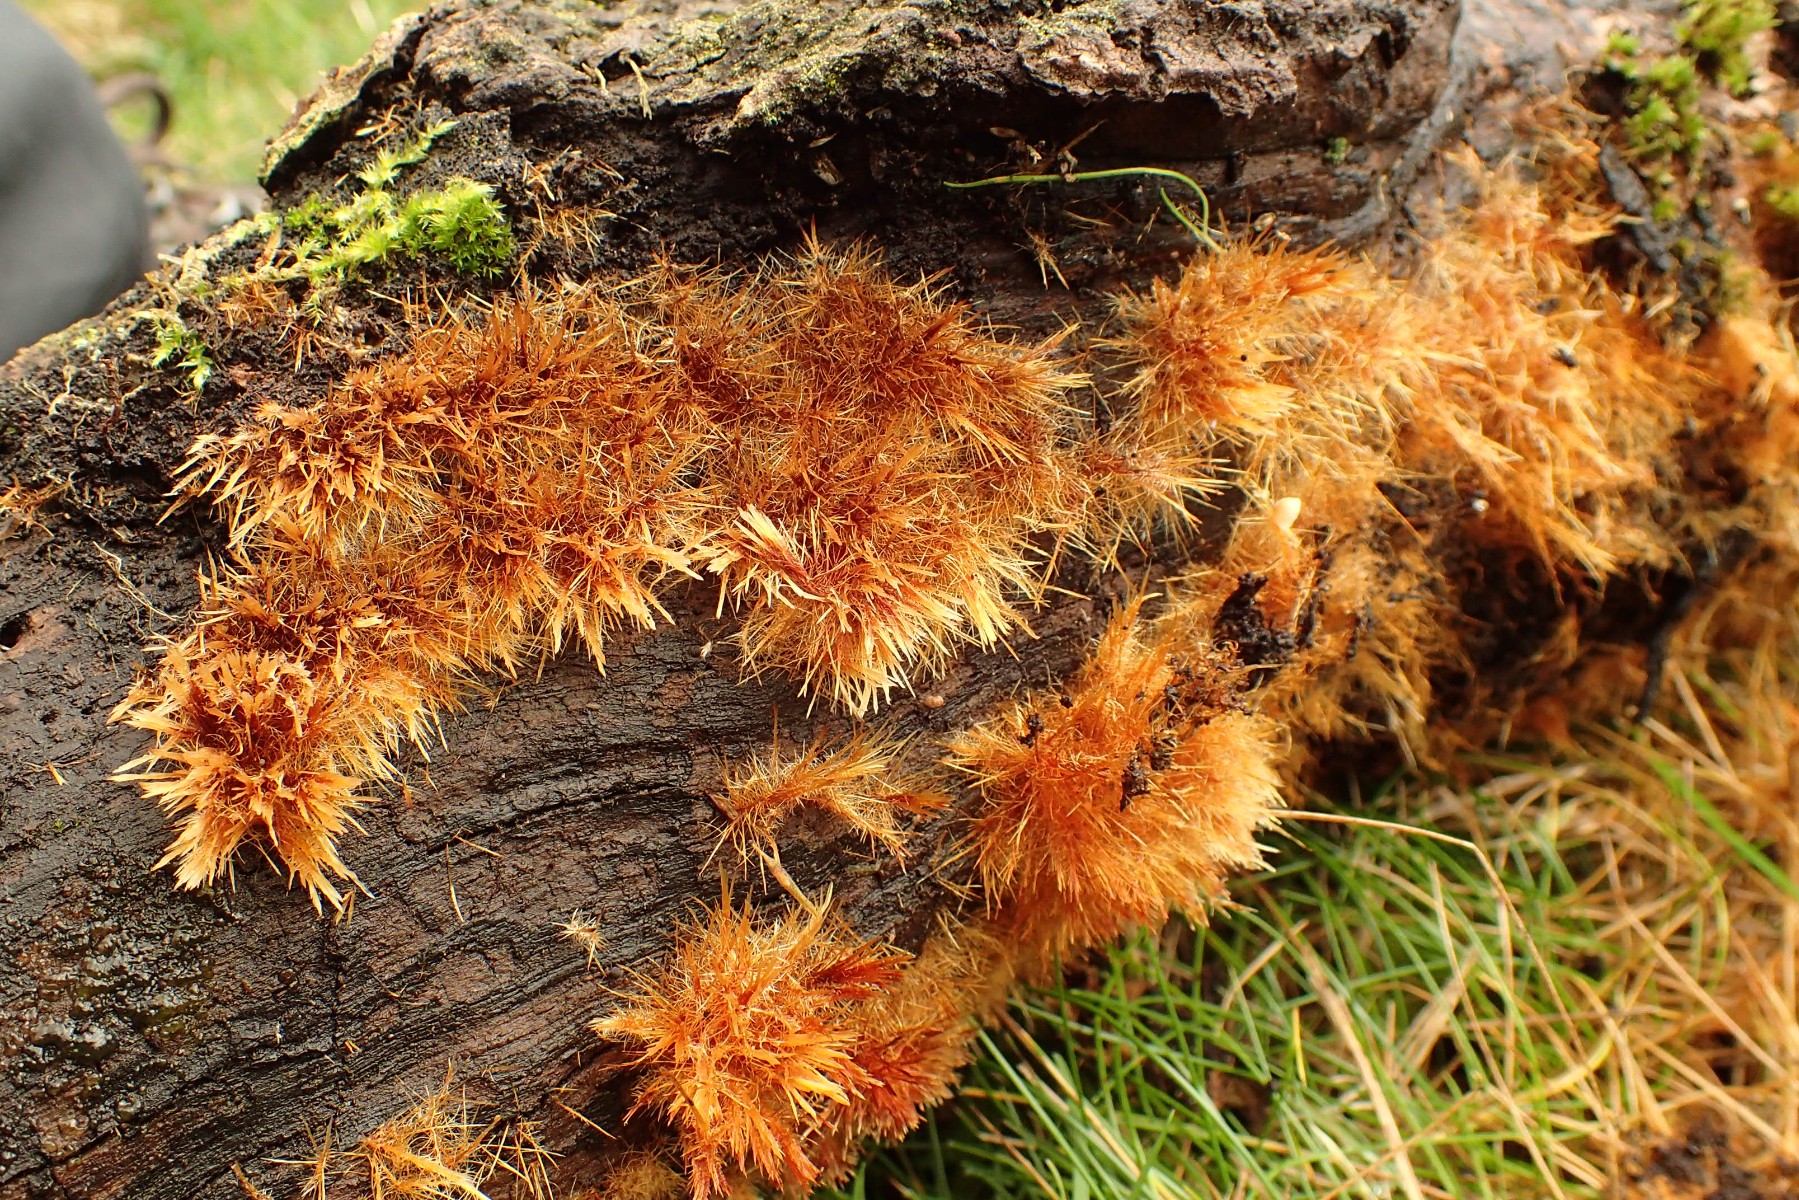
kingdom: Fungi
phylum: Basidiomycota
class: Agaricomycetes
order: Agaricales
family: Psathyrellaceae
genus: Ozonium
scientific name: Ozonium
